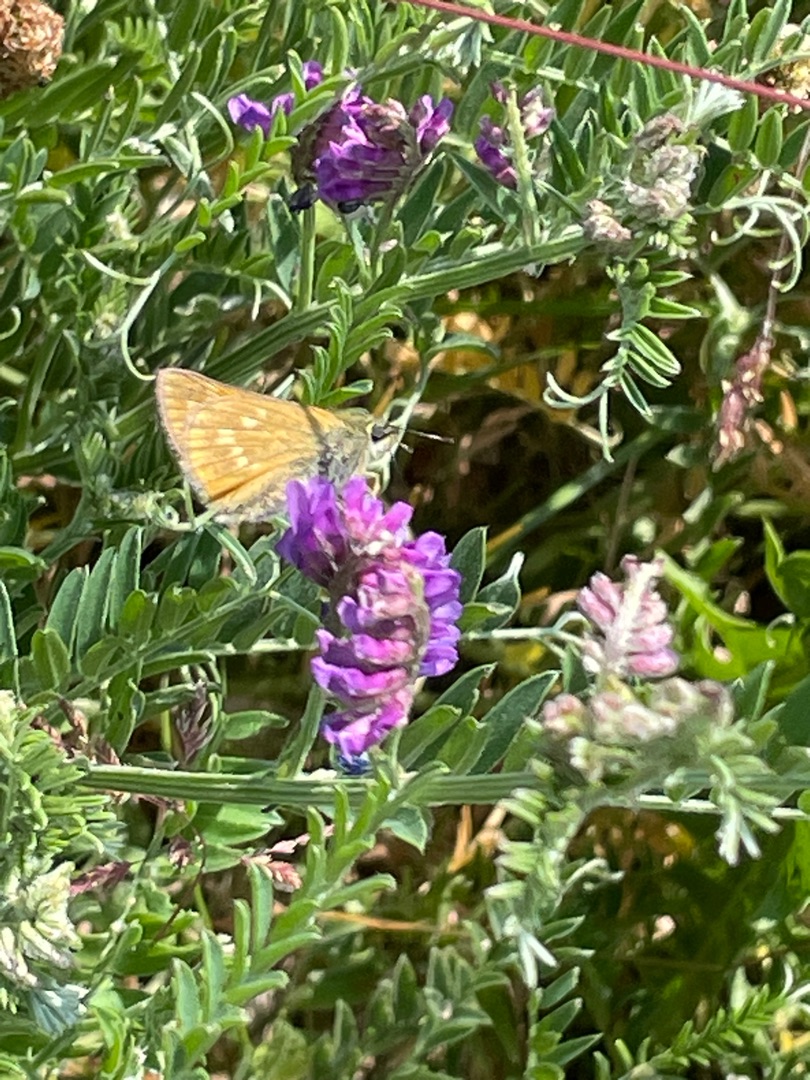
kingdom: Animalia
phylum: Arthropoda
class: Insecta
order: Lepidoptera
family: Hesperiidae
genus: Ochlodes
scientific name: Ochlodes venata
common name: Stor bredpande
